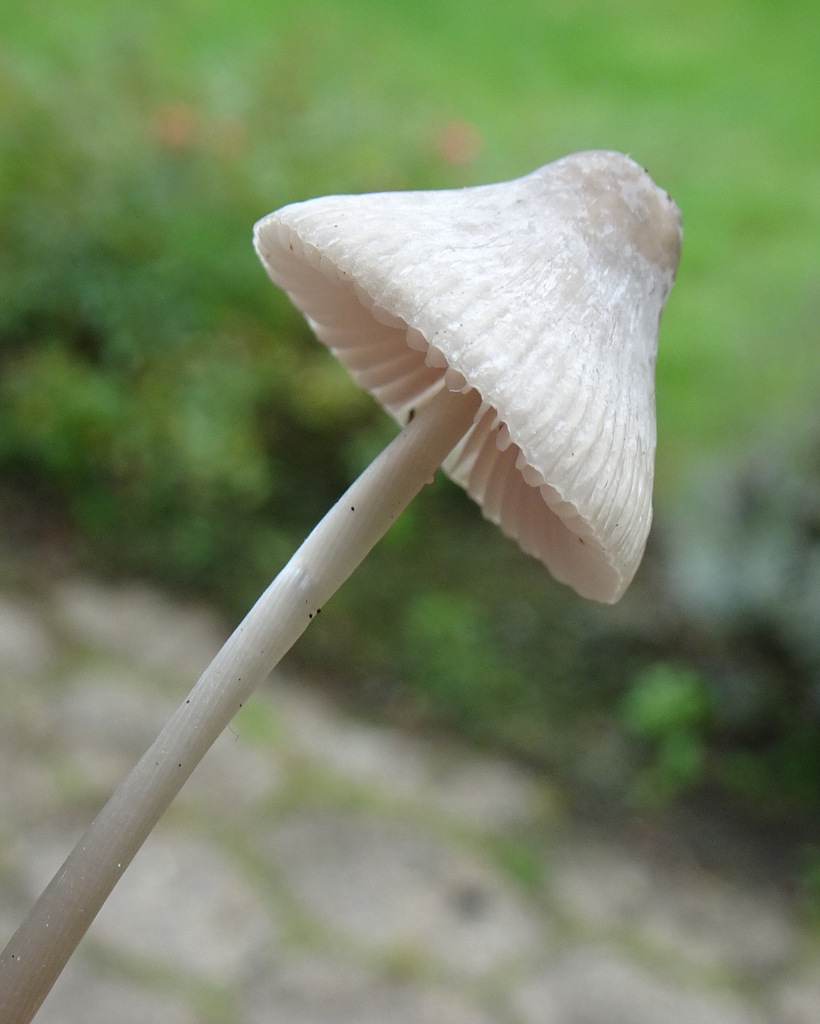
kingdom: Fungi
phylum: Basidiomycota
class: Agaricomycetes
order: Agaricales
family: Mycenaceae
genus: Mycena
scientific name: Mycena polygramma
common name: mangestribet huesvamp
